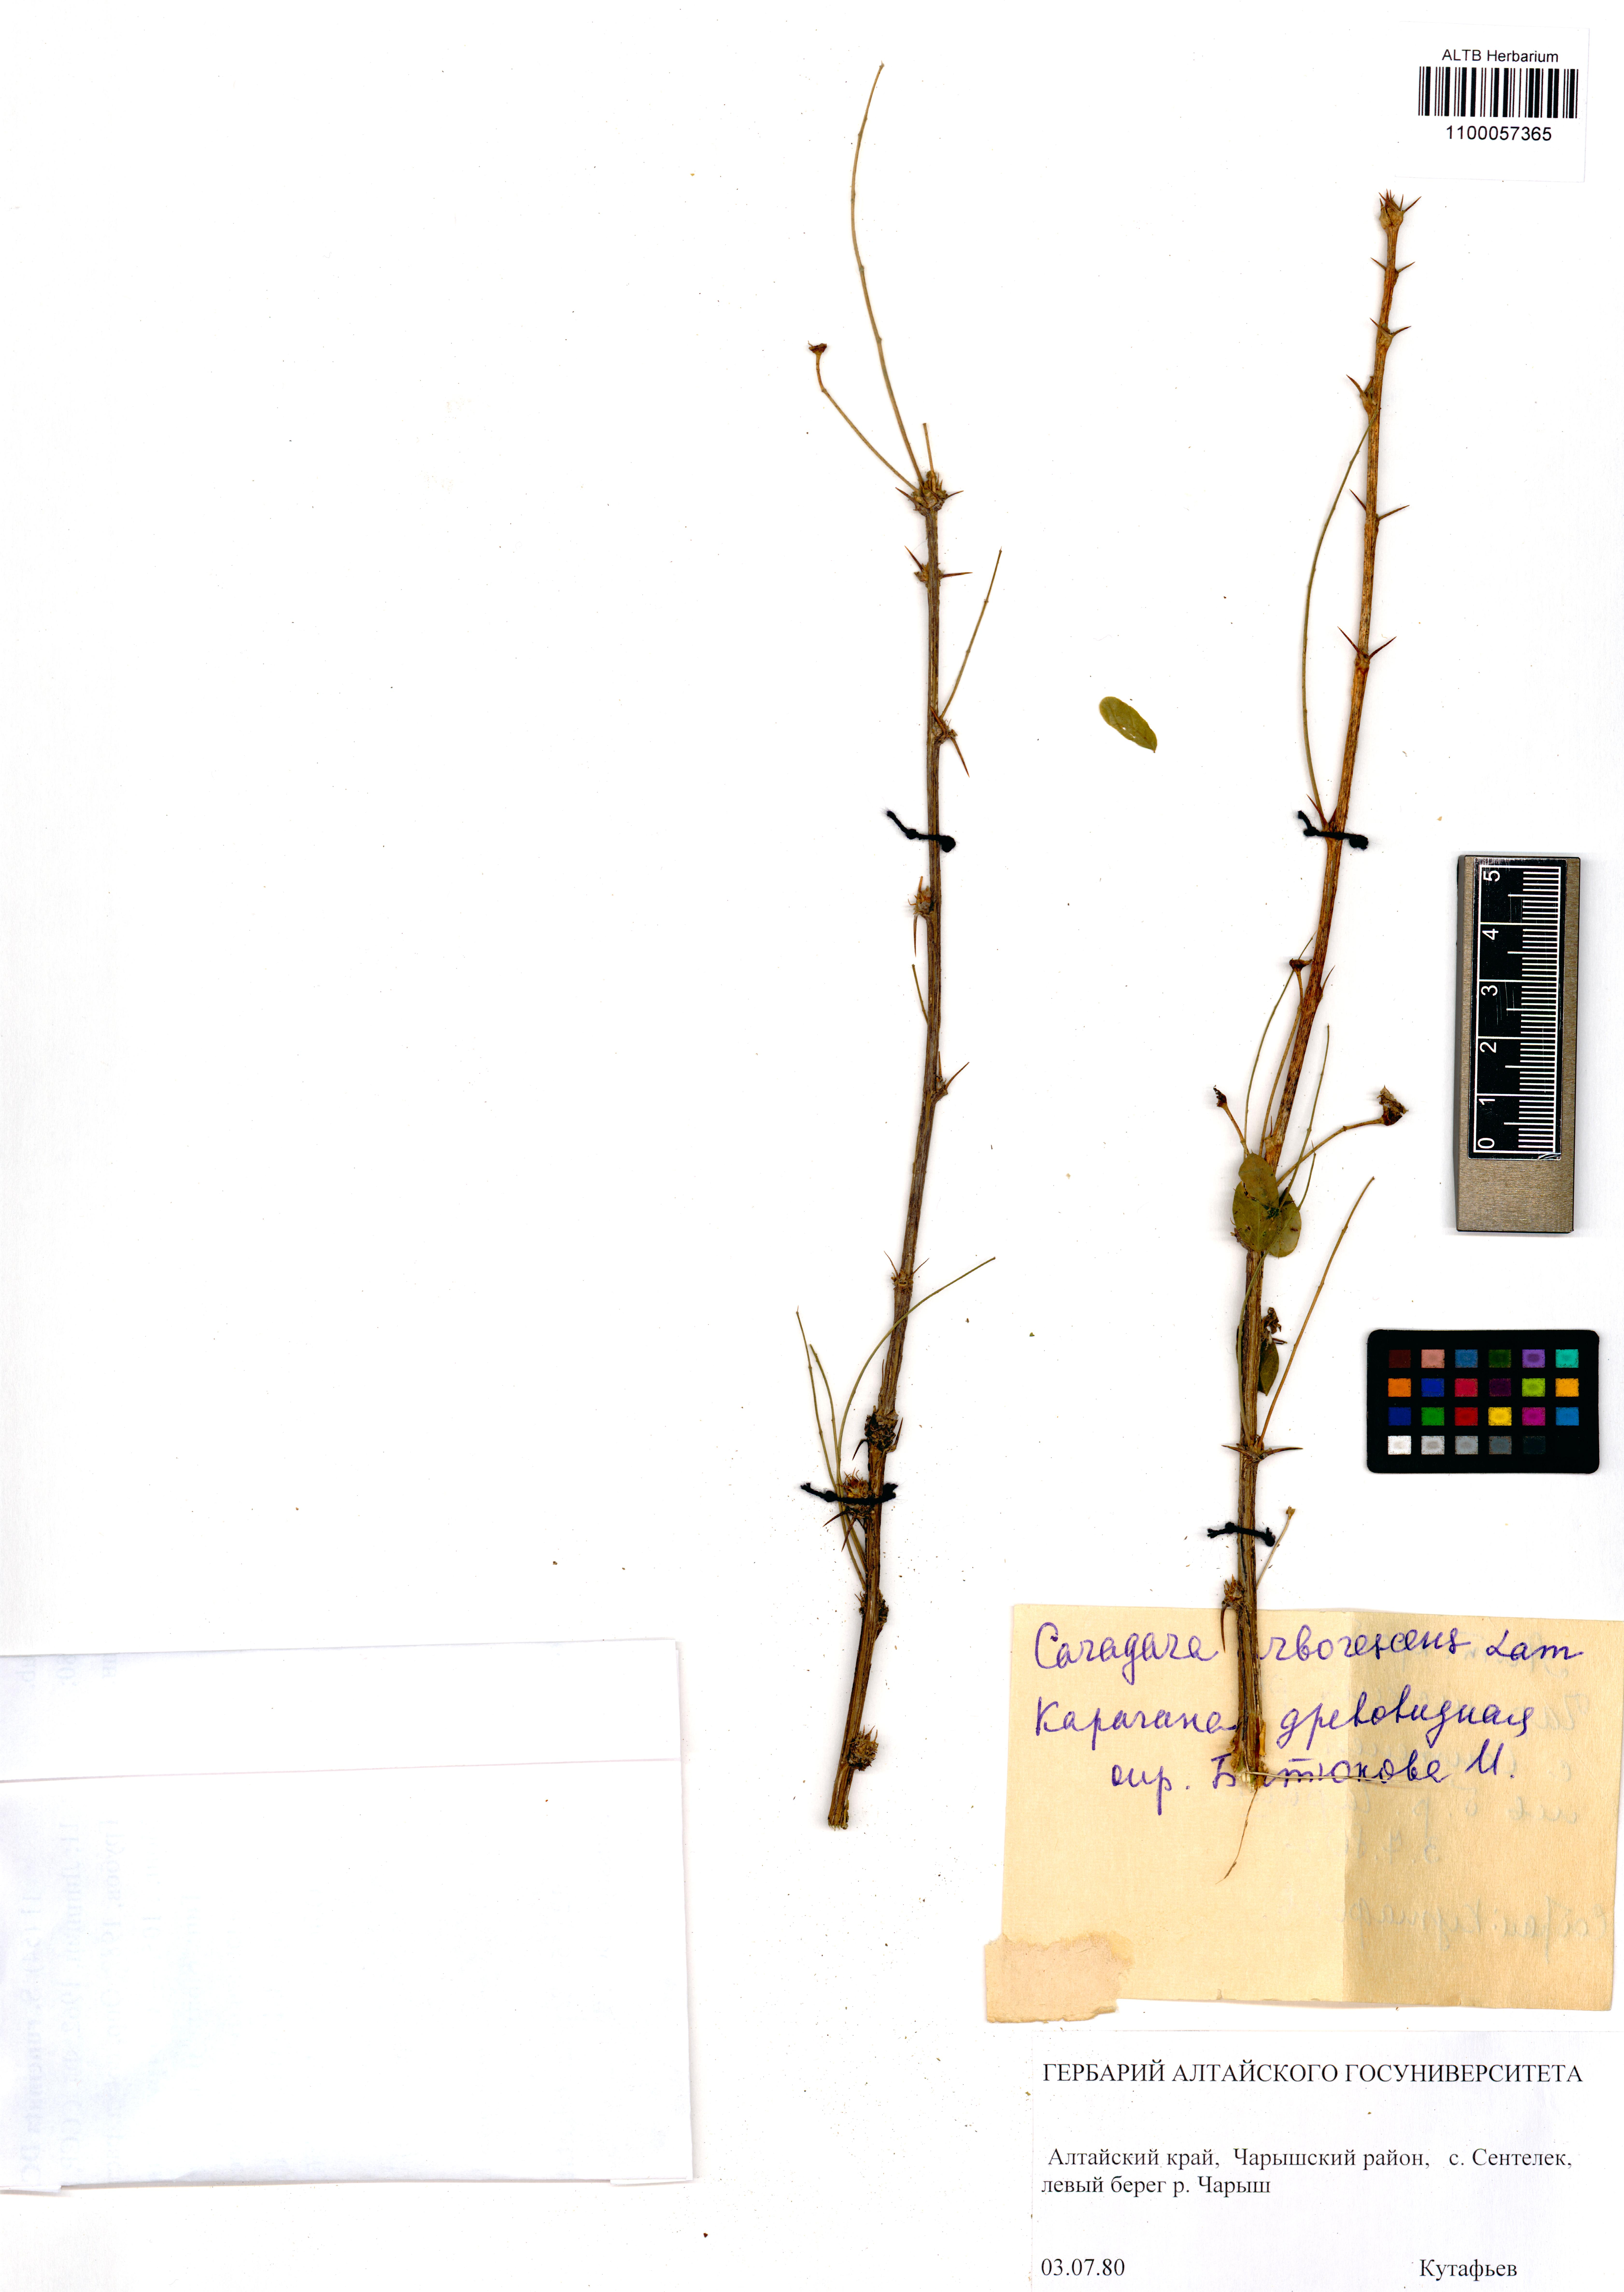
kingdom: Plantae
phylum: Tracheophyta
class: Magnoliopsida
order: Fabales
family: Fabaceae
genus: Caragana
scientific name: Caragana arborescens
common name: Siberian peashrub
